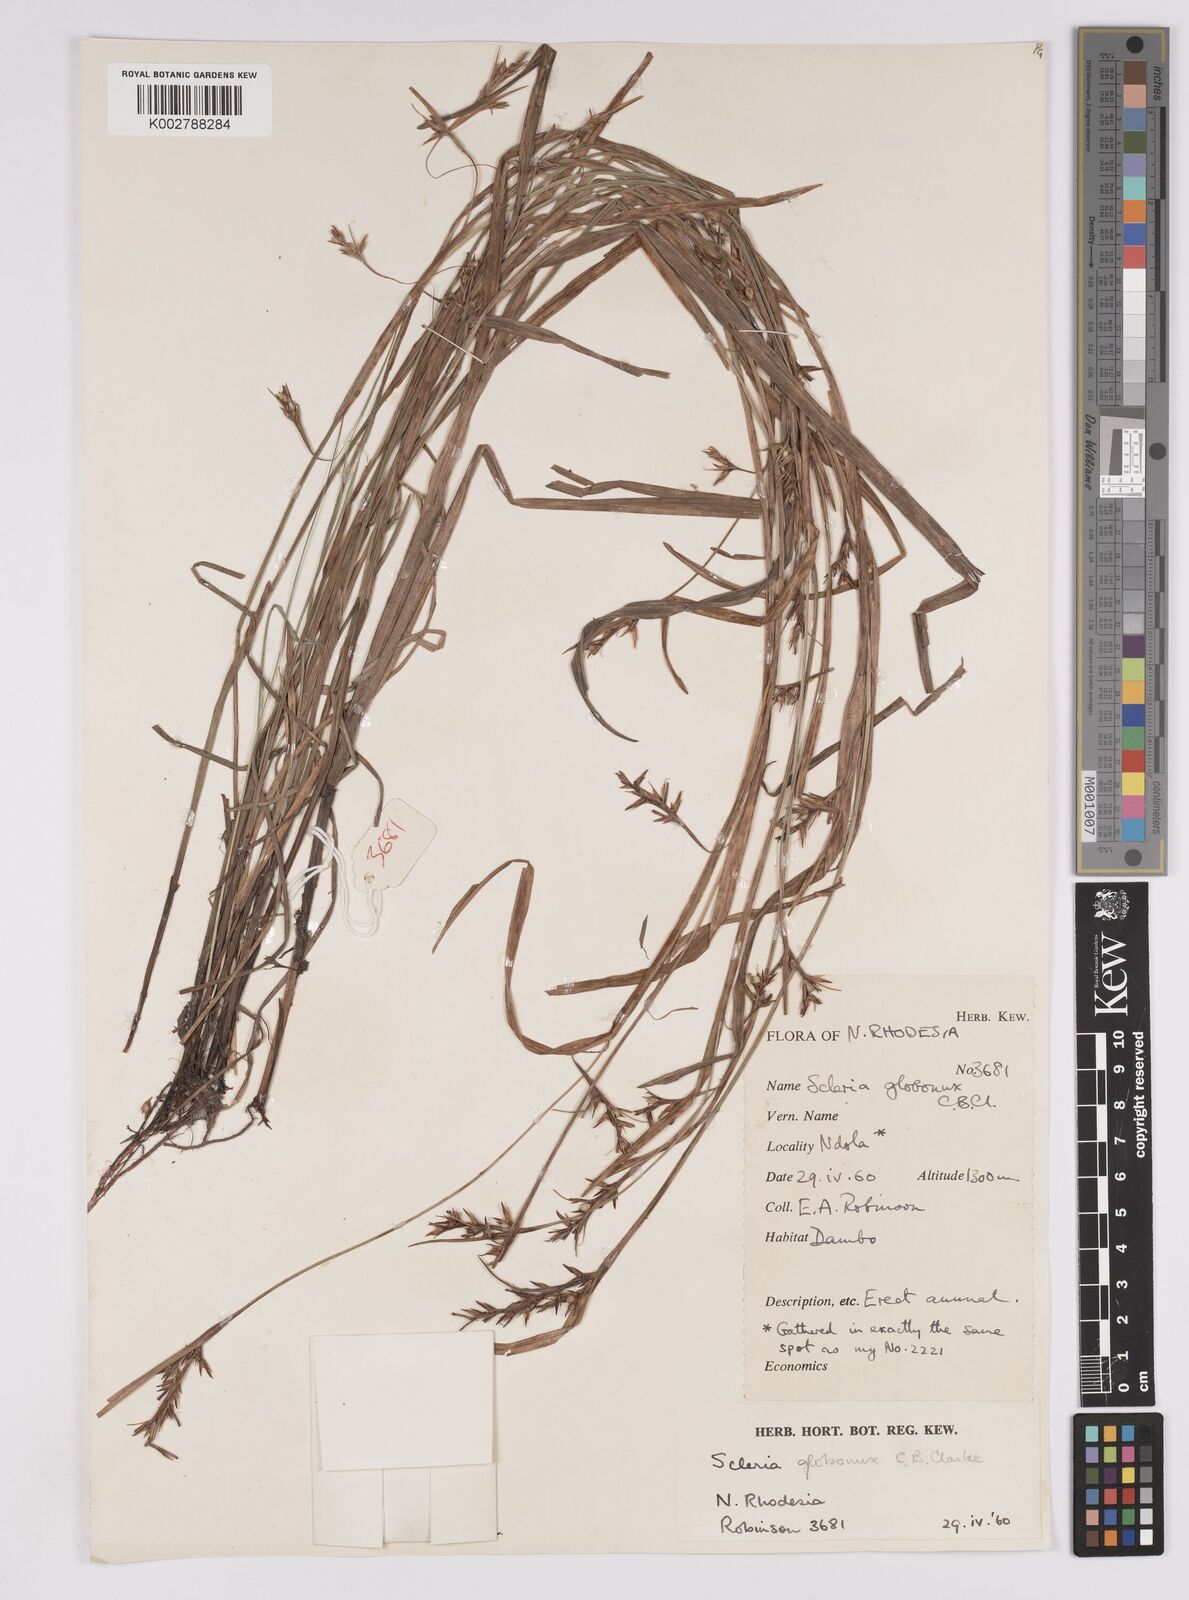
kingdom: Plantae
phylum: Tracheophyta
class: Liliopsida
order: Poales
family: Cyperaceae
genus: Scleria
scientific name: Scleria globonux
